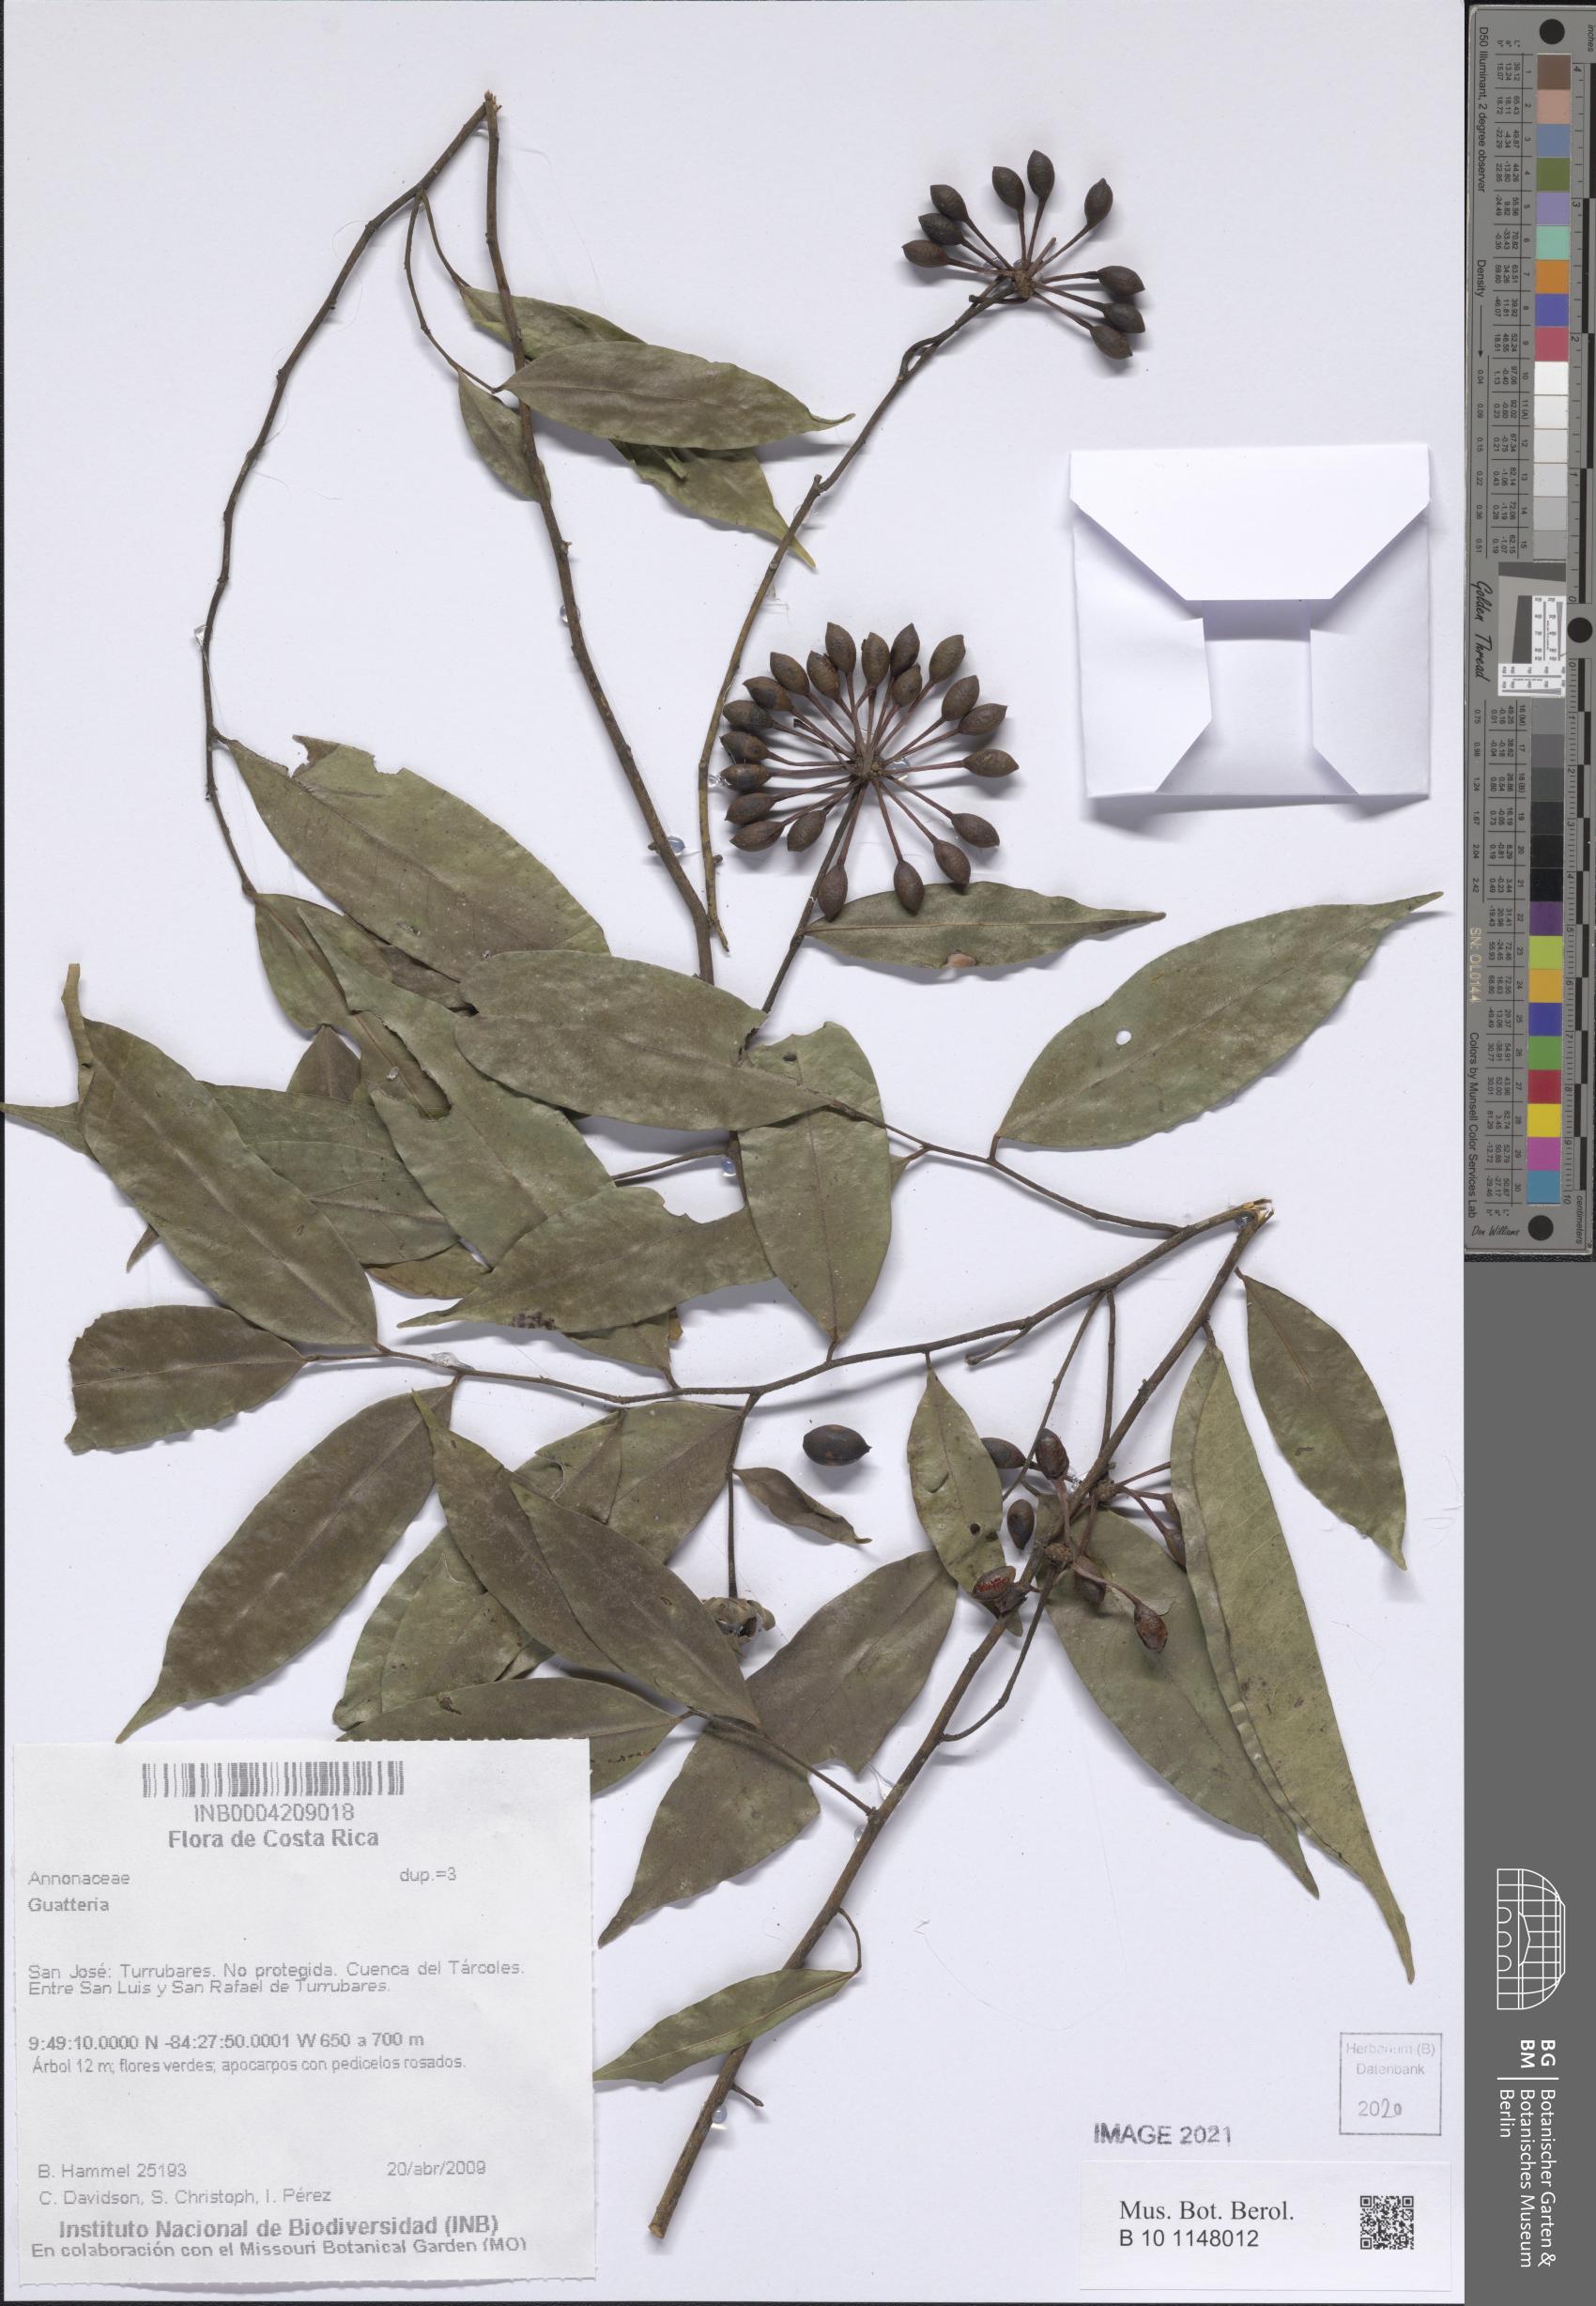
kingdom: Plantae
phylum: Tracheophyta
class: Magnoliopsida
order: Magnoliales
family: Annonaceae
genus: Guatteria
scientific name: Guatteria
